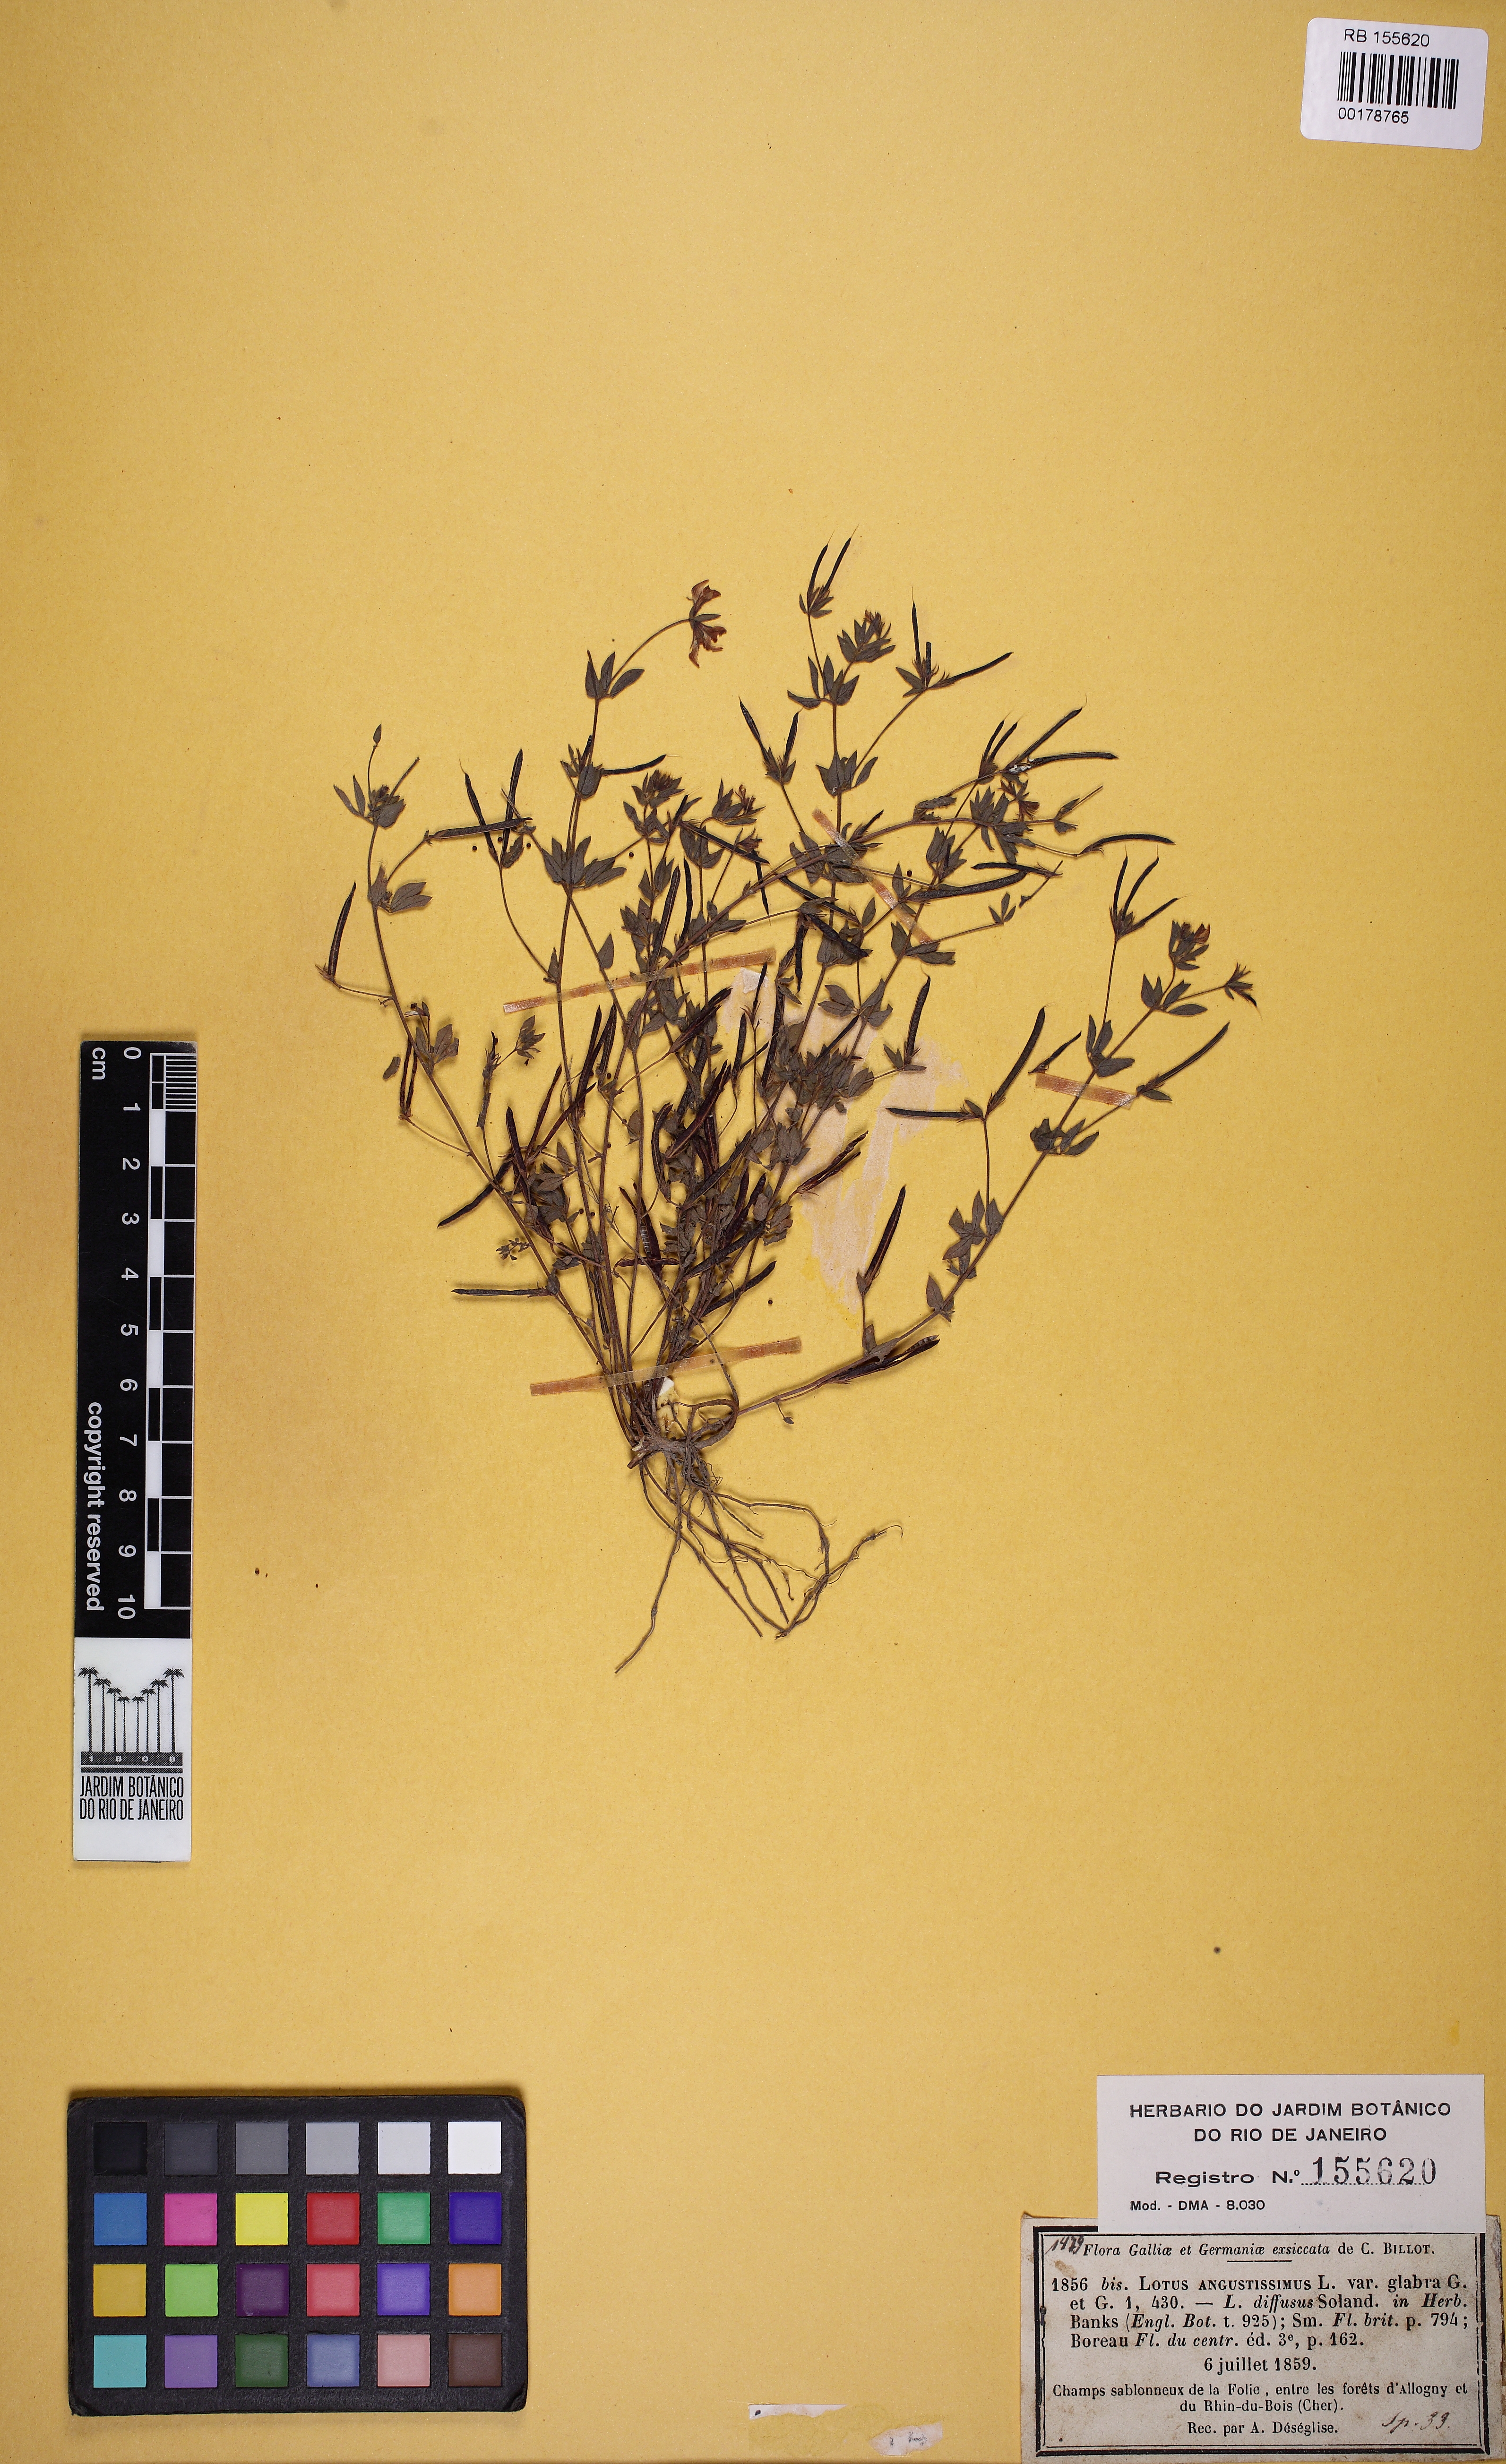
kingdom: Plantae
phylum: Tracheophyta
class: Magnoliopsida
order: Fabales
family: Fabaceae
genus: Lotus
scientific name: Lotus angustissimus
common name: Slender bird's-foot trefoil
